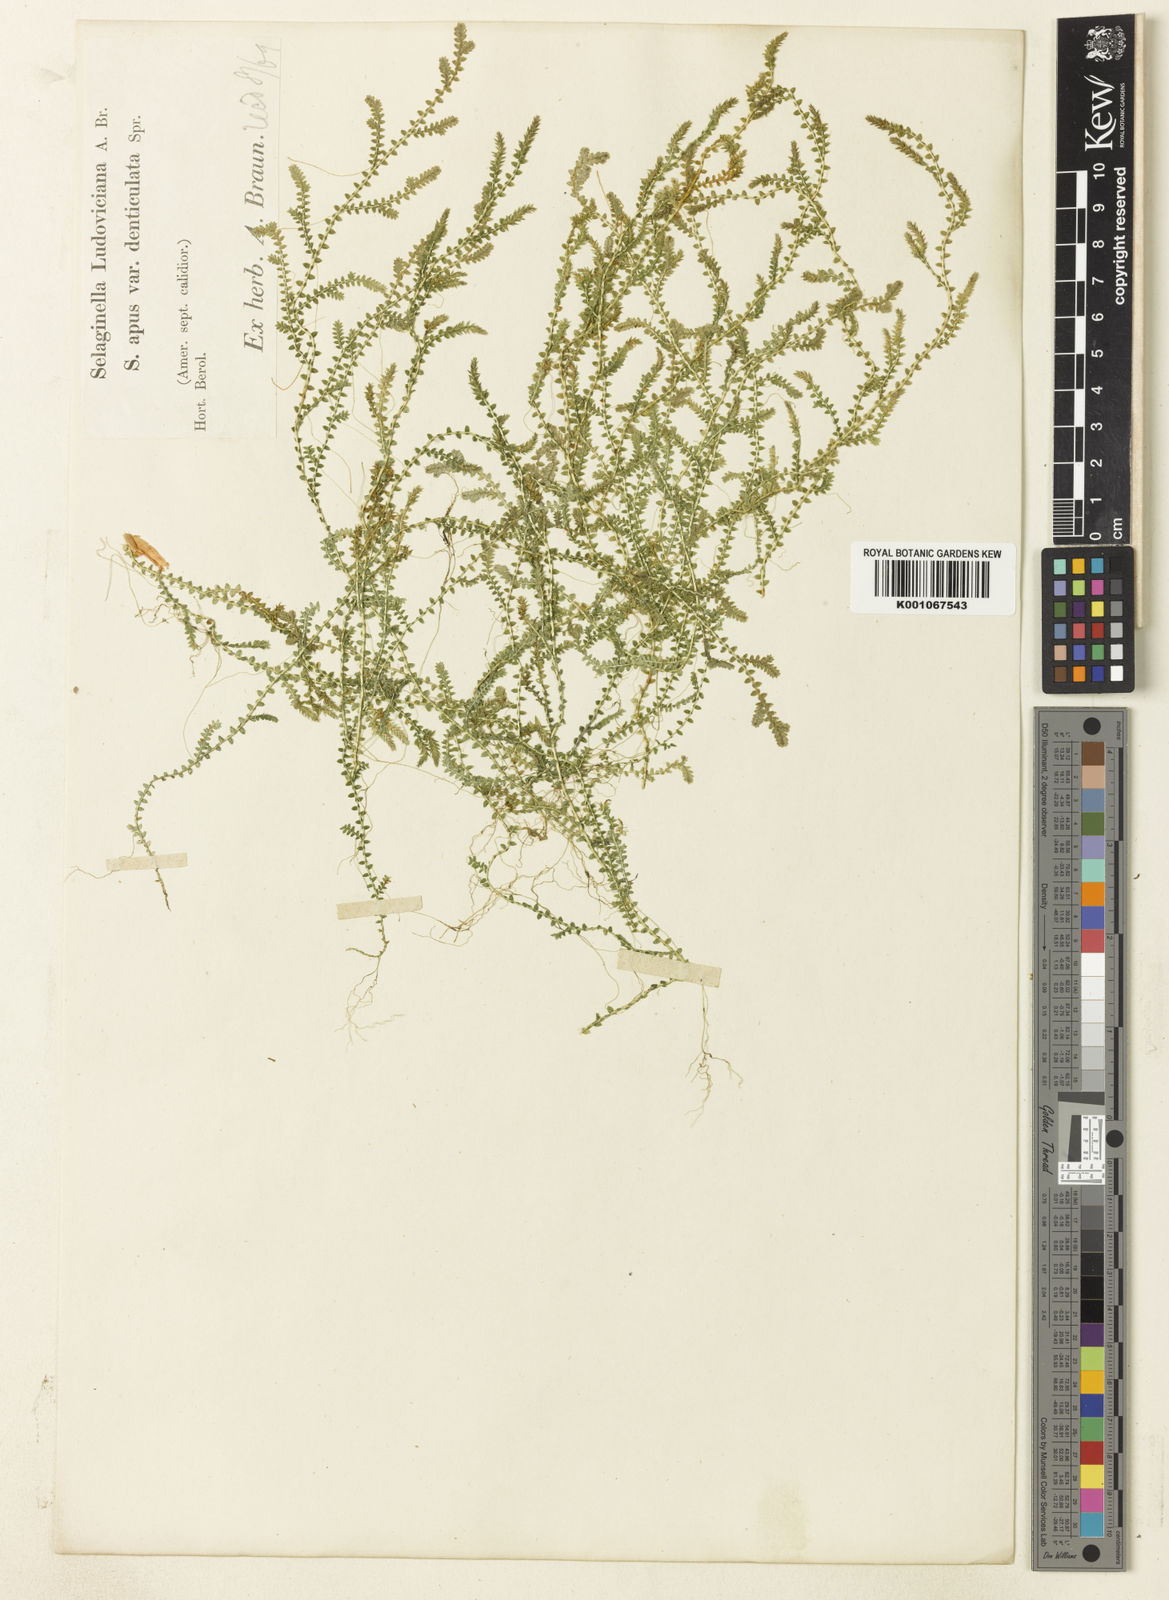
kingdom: Plantae
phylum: Tracheophyta
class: Lycopodiopsida
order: Selaginellales
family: Selaginellaceae
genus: Selaginella
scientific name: Selaginella
